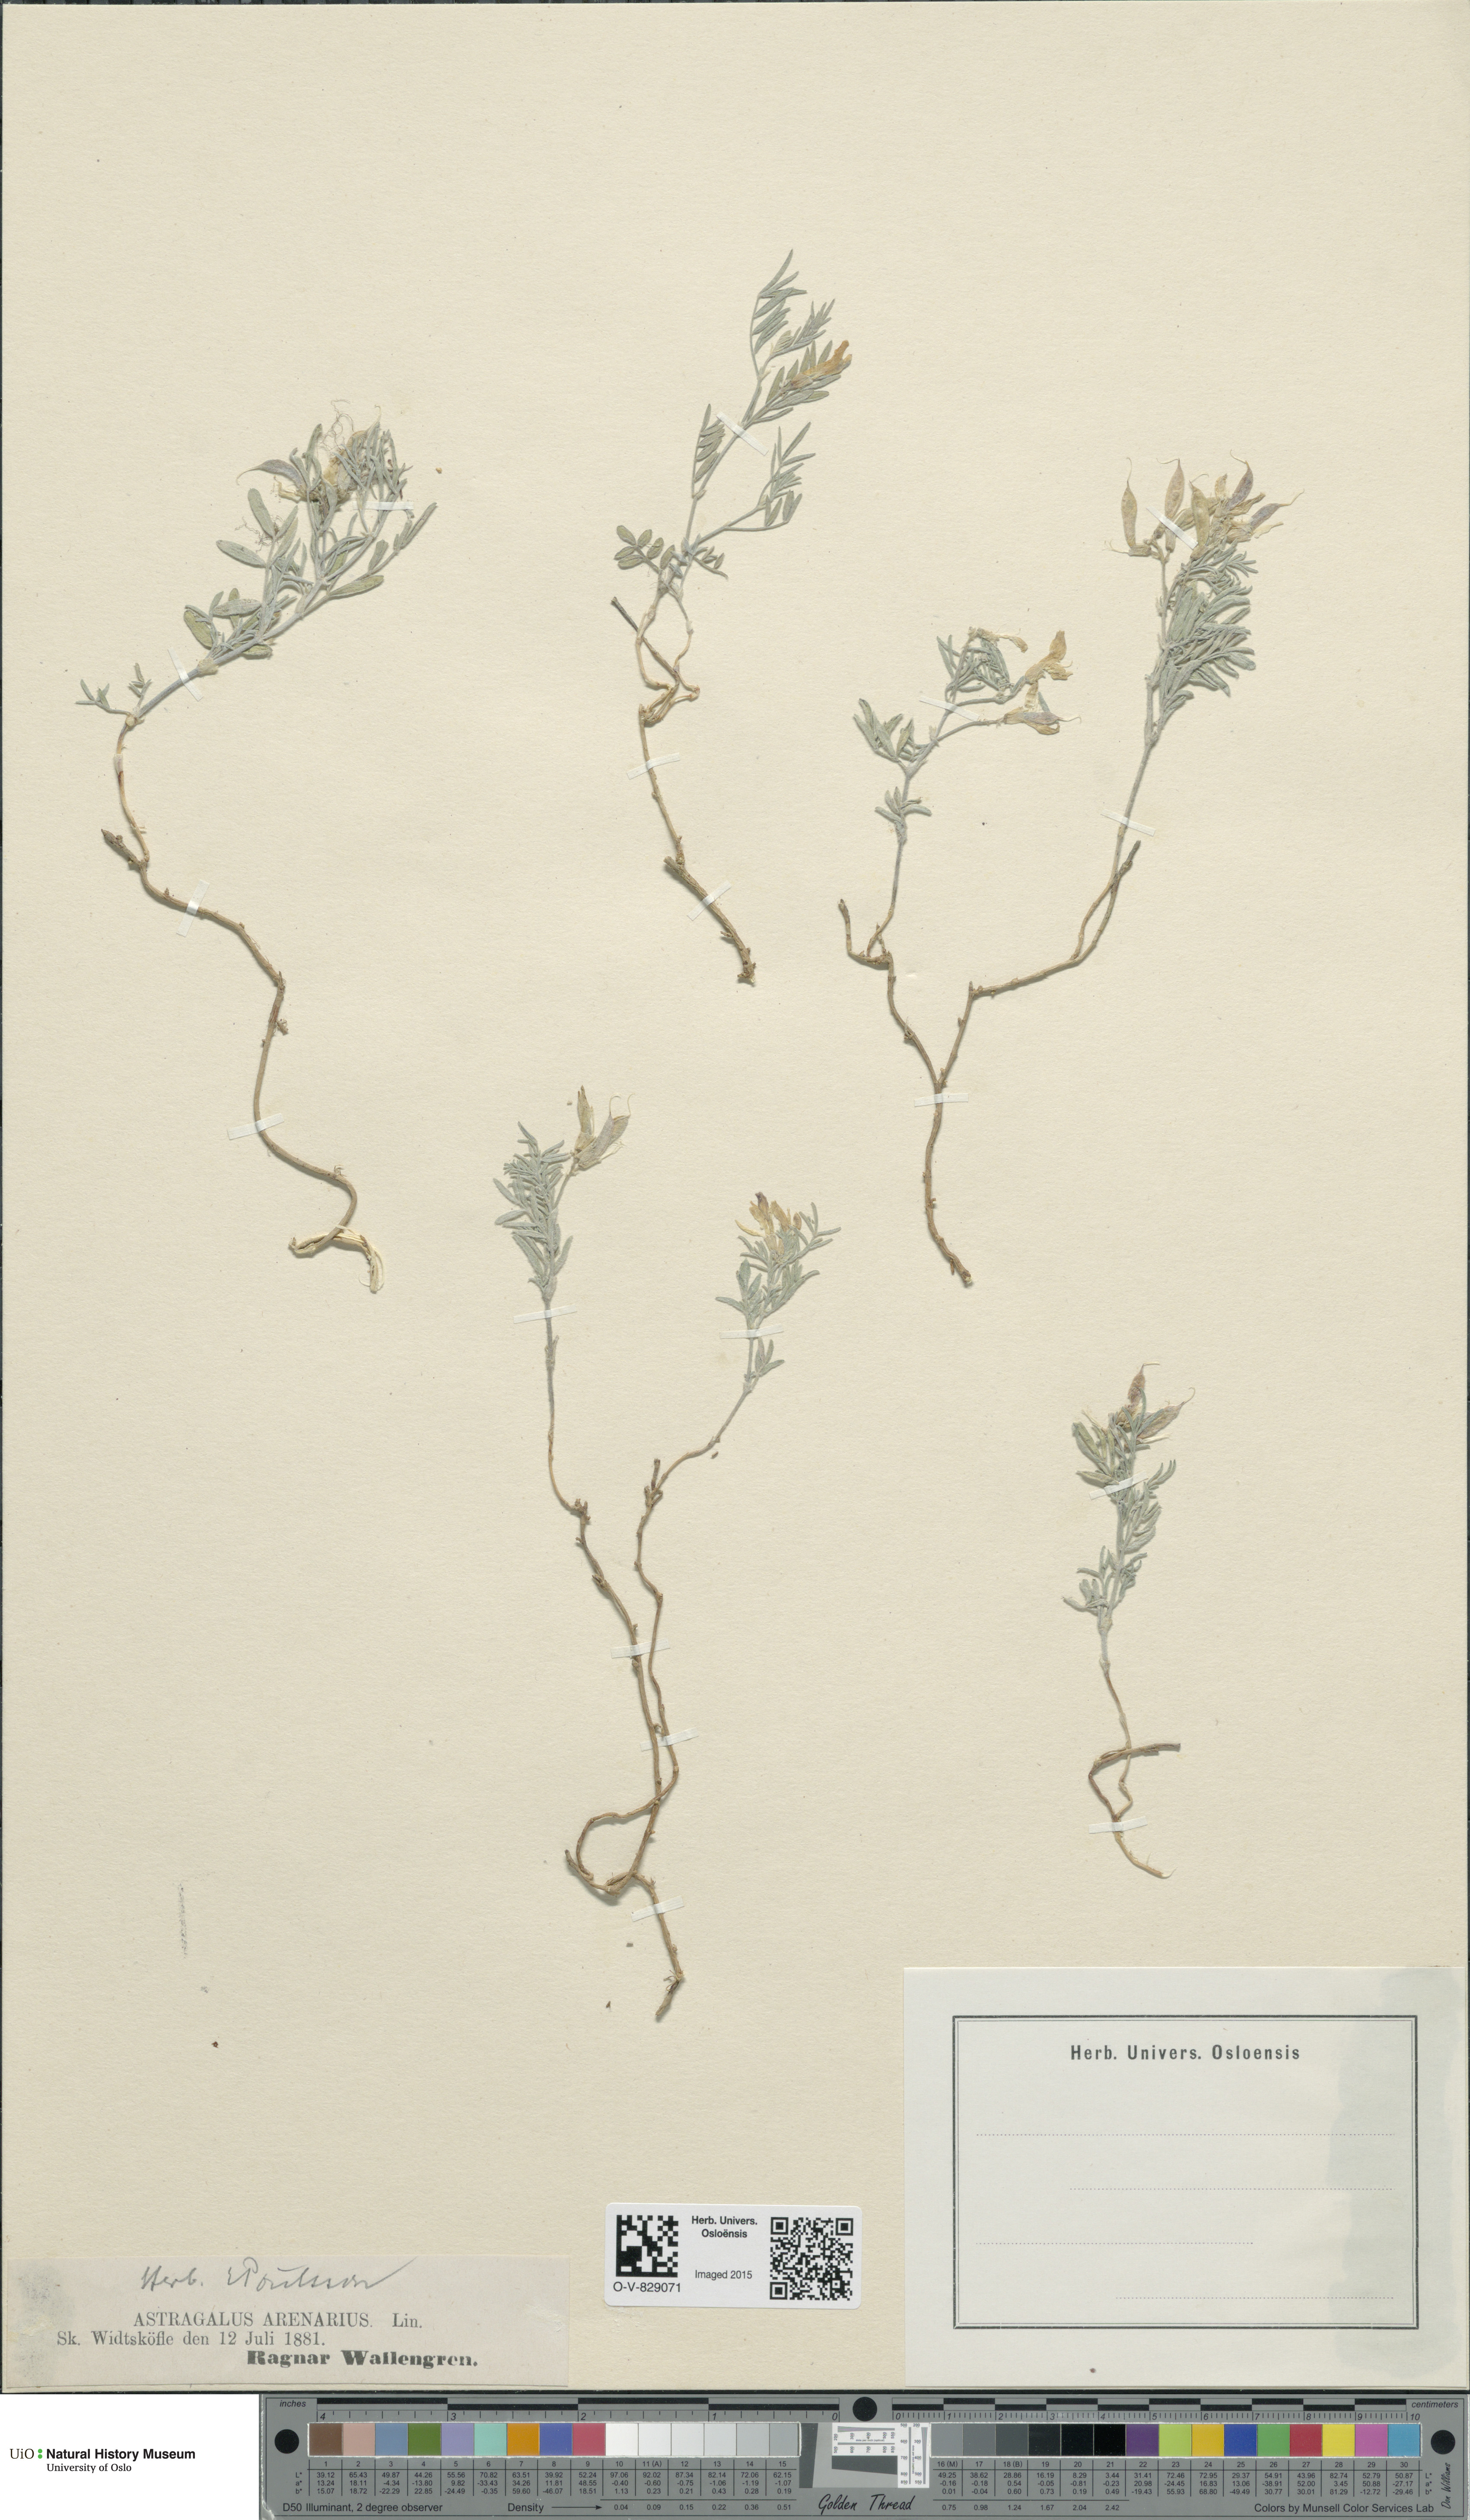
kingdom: Plantae
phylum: Tracheophyta
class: Magnoliopsida
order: Fabales
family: Fabaceae
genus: Astragalus
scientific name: Astragalus arenarius
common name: Arenarious milk-vetch
